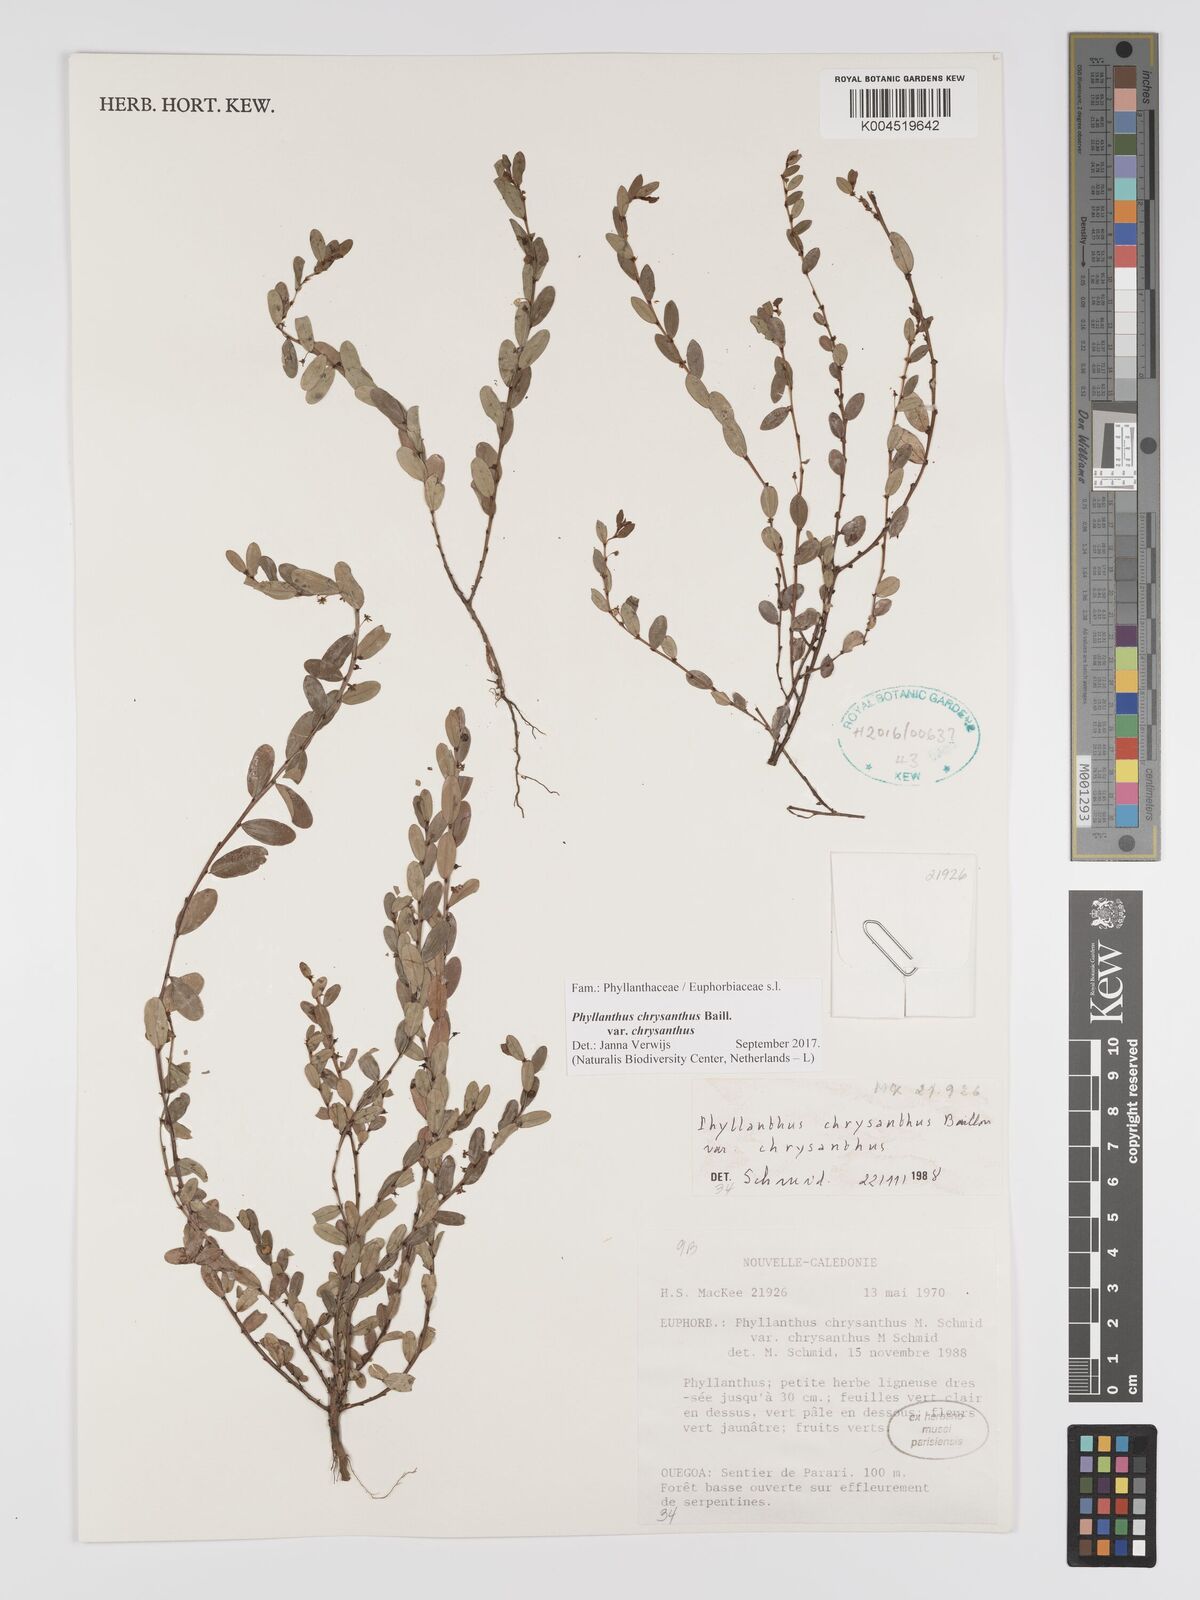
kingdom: Plantae
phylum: Tracheophyta
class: Magnoliopsida
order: Malpighiales
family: Phyllanthaceae
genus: Phyllanthus
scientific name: Phyllanthus chrysanthus
